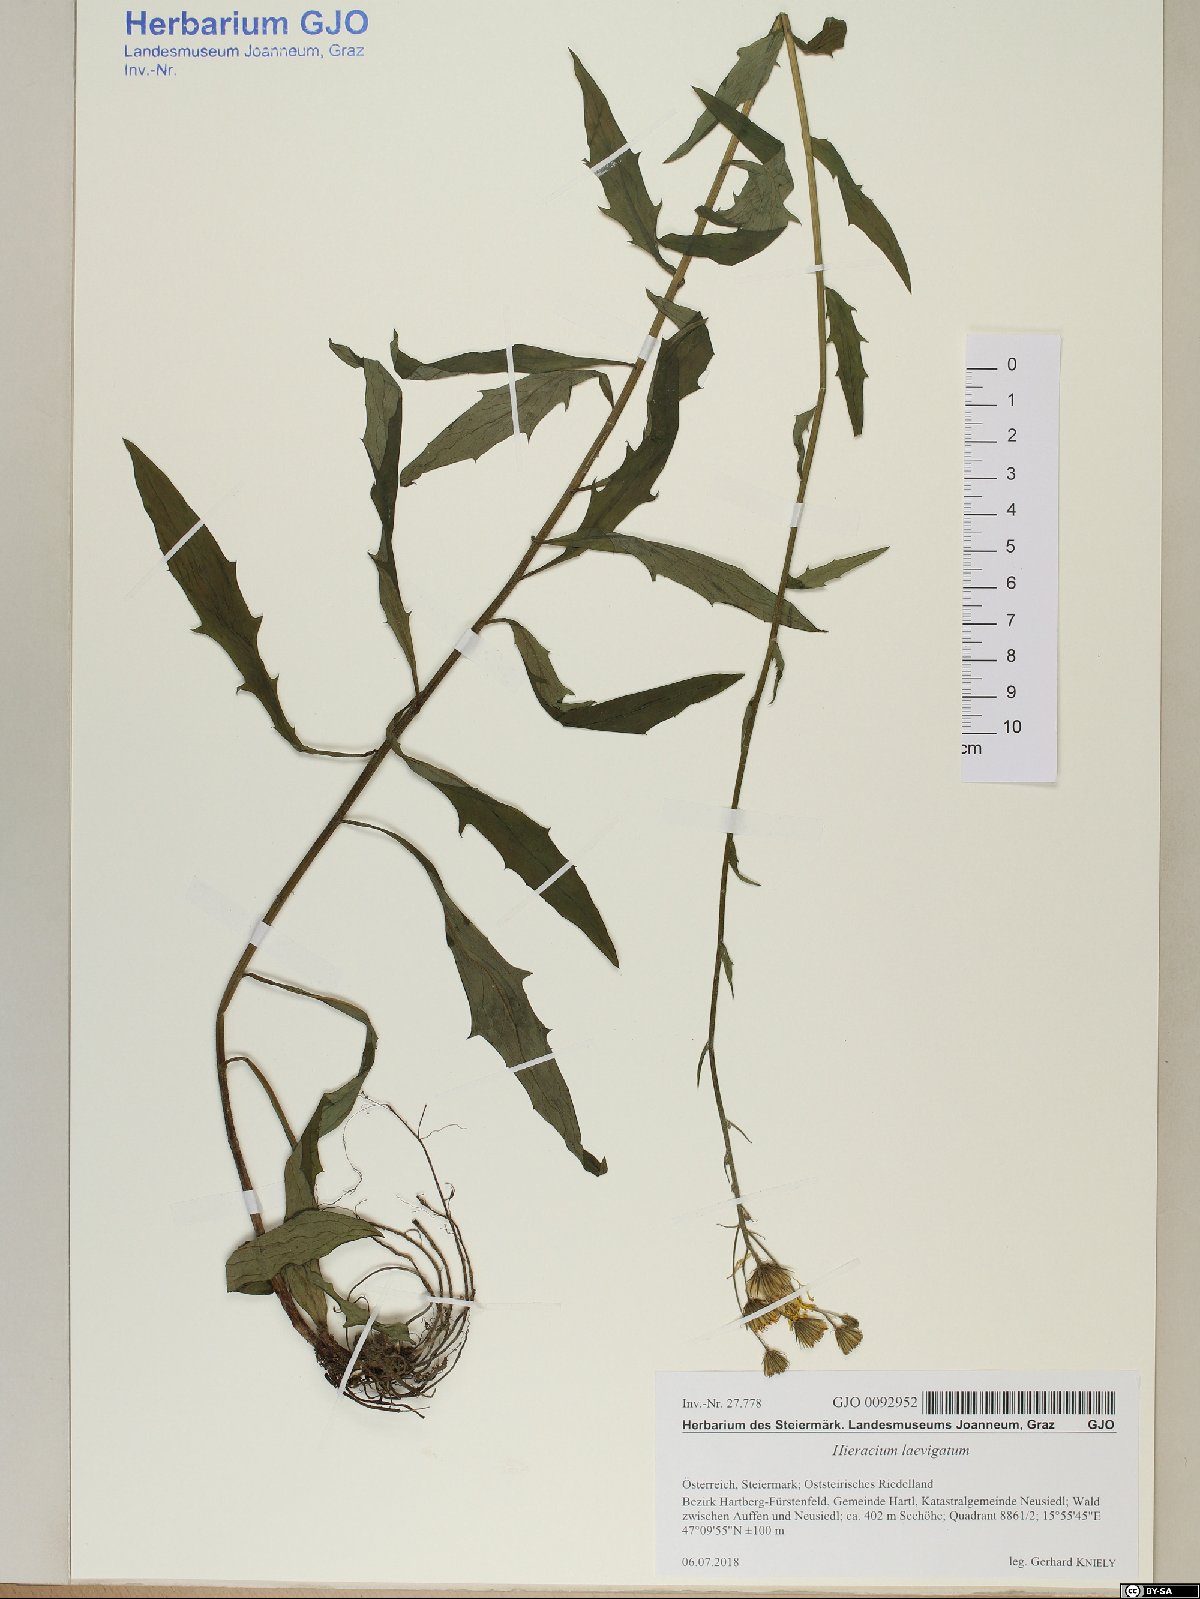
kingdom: Plantae
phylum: Tracheophyta
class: Magnoliopsida
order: Asterales
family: Asteraceae
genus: Hieracium
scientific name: Hieracium laevigatum
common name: Smooth hawkweed
